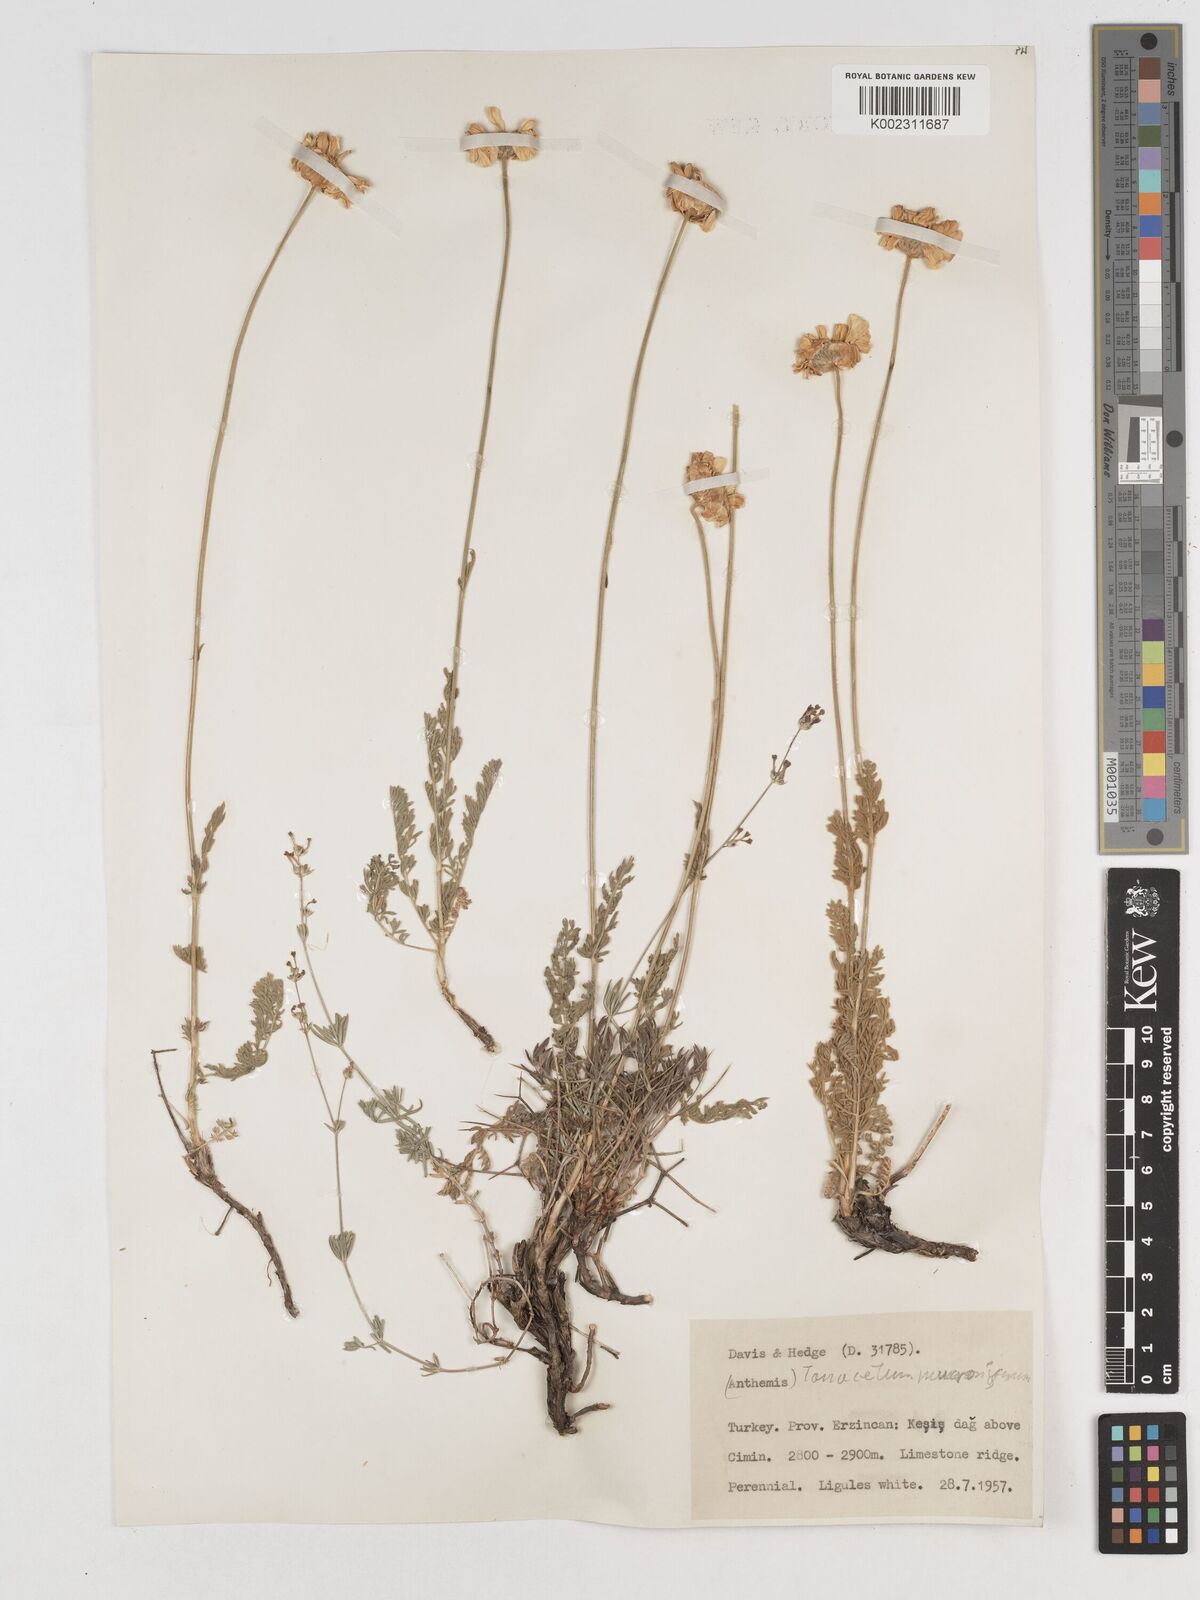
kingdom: Plantae
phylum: Tracheophyta
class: Magnoliopsida
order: Asterales
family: Asteraceae
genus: Tanacetum
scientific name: Tanacetum mucroniferum
